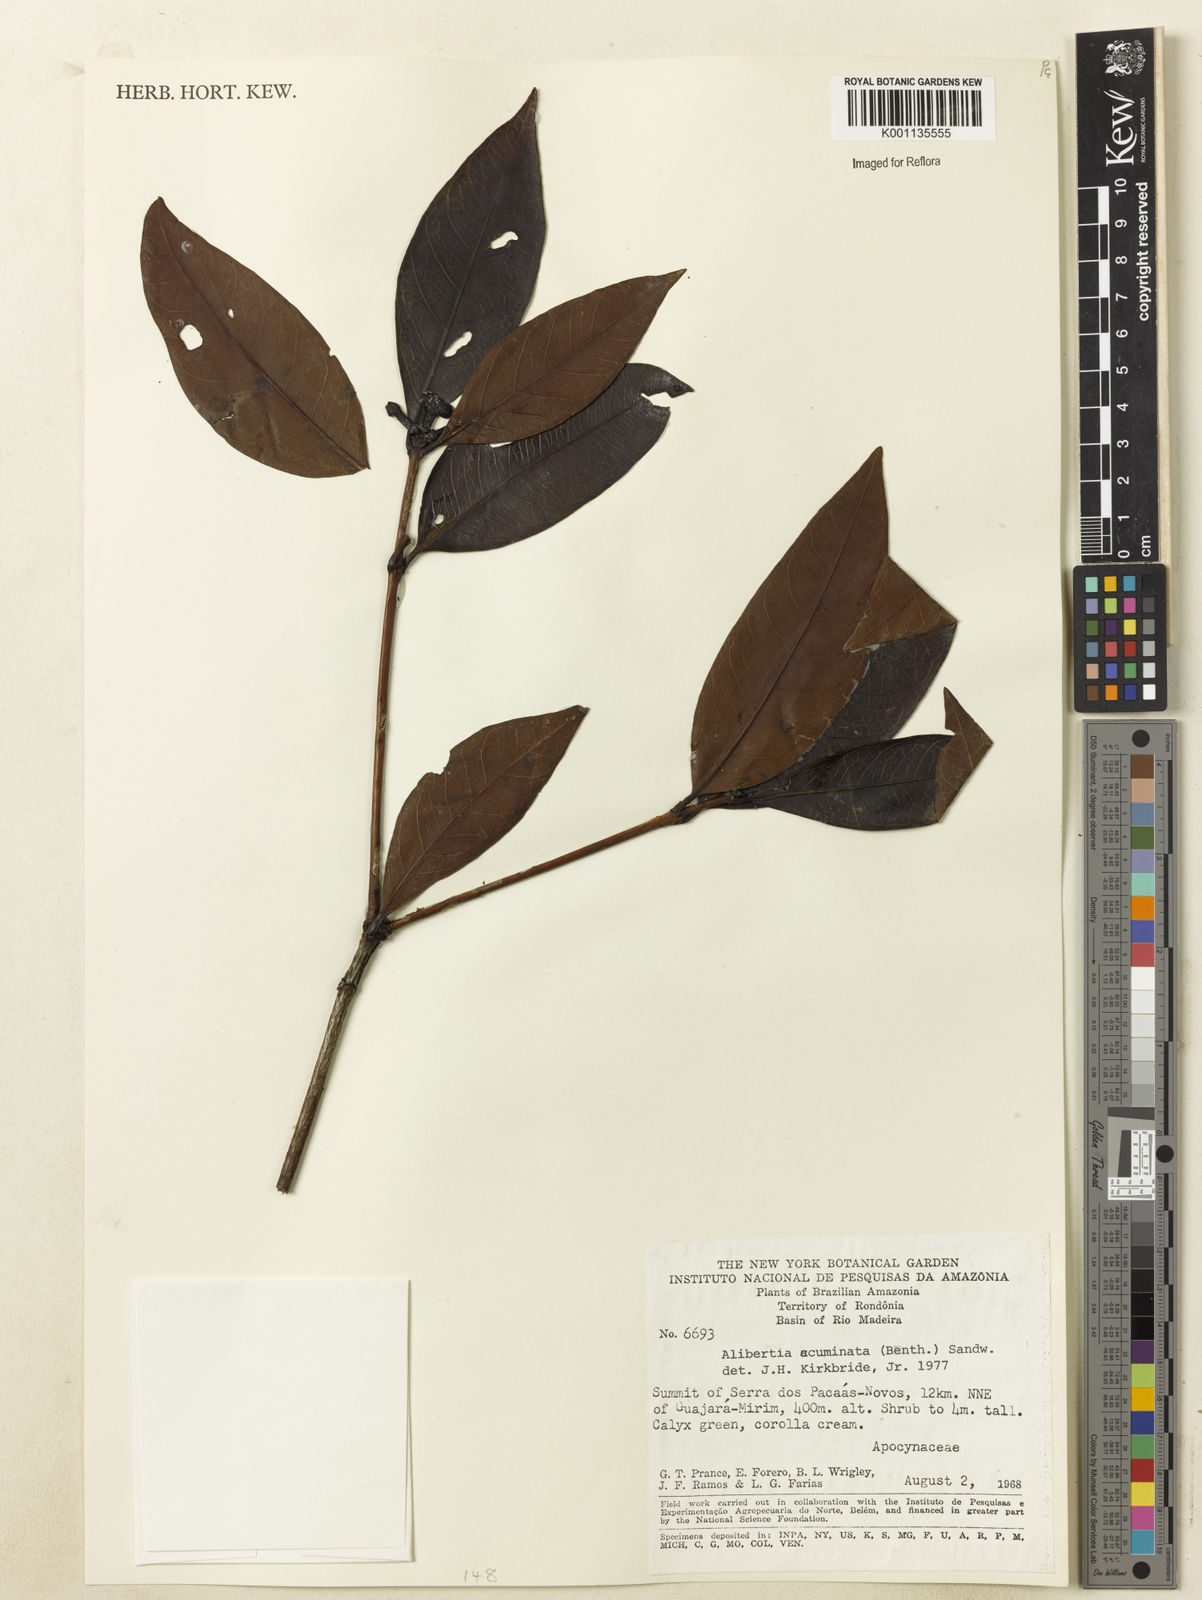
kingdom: Plantae
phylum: Tracheophyta
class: Magnoliopsida
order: Gentianales
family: Rubiaceae
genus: Alibertia
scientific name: Alibertia edulis
